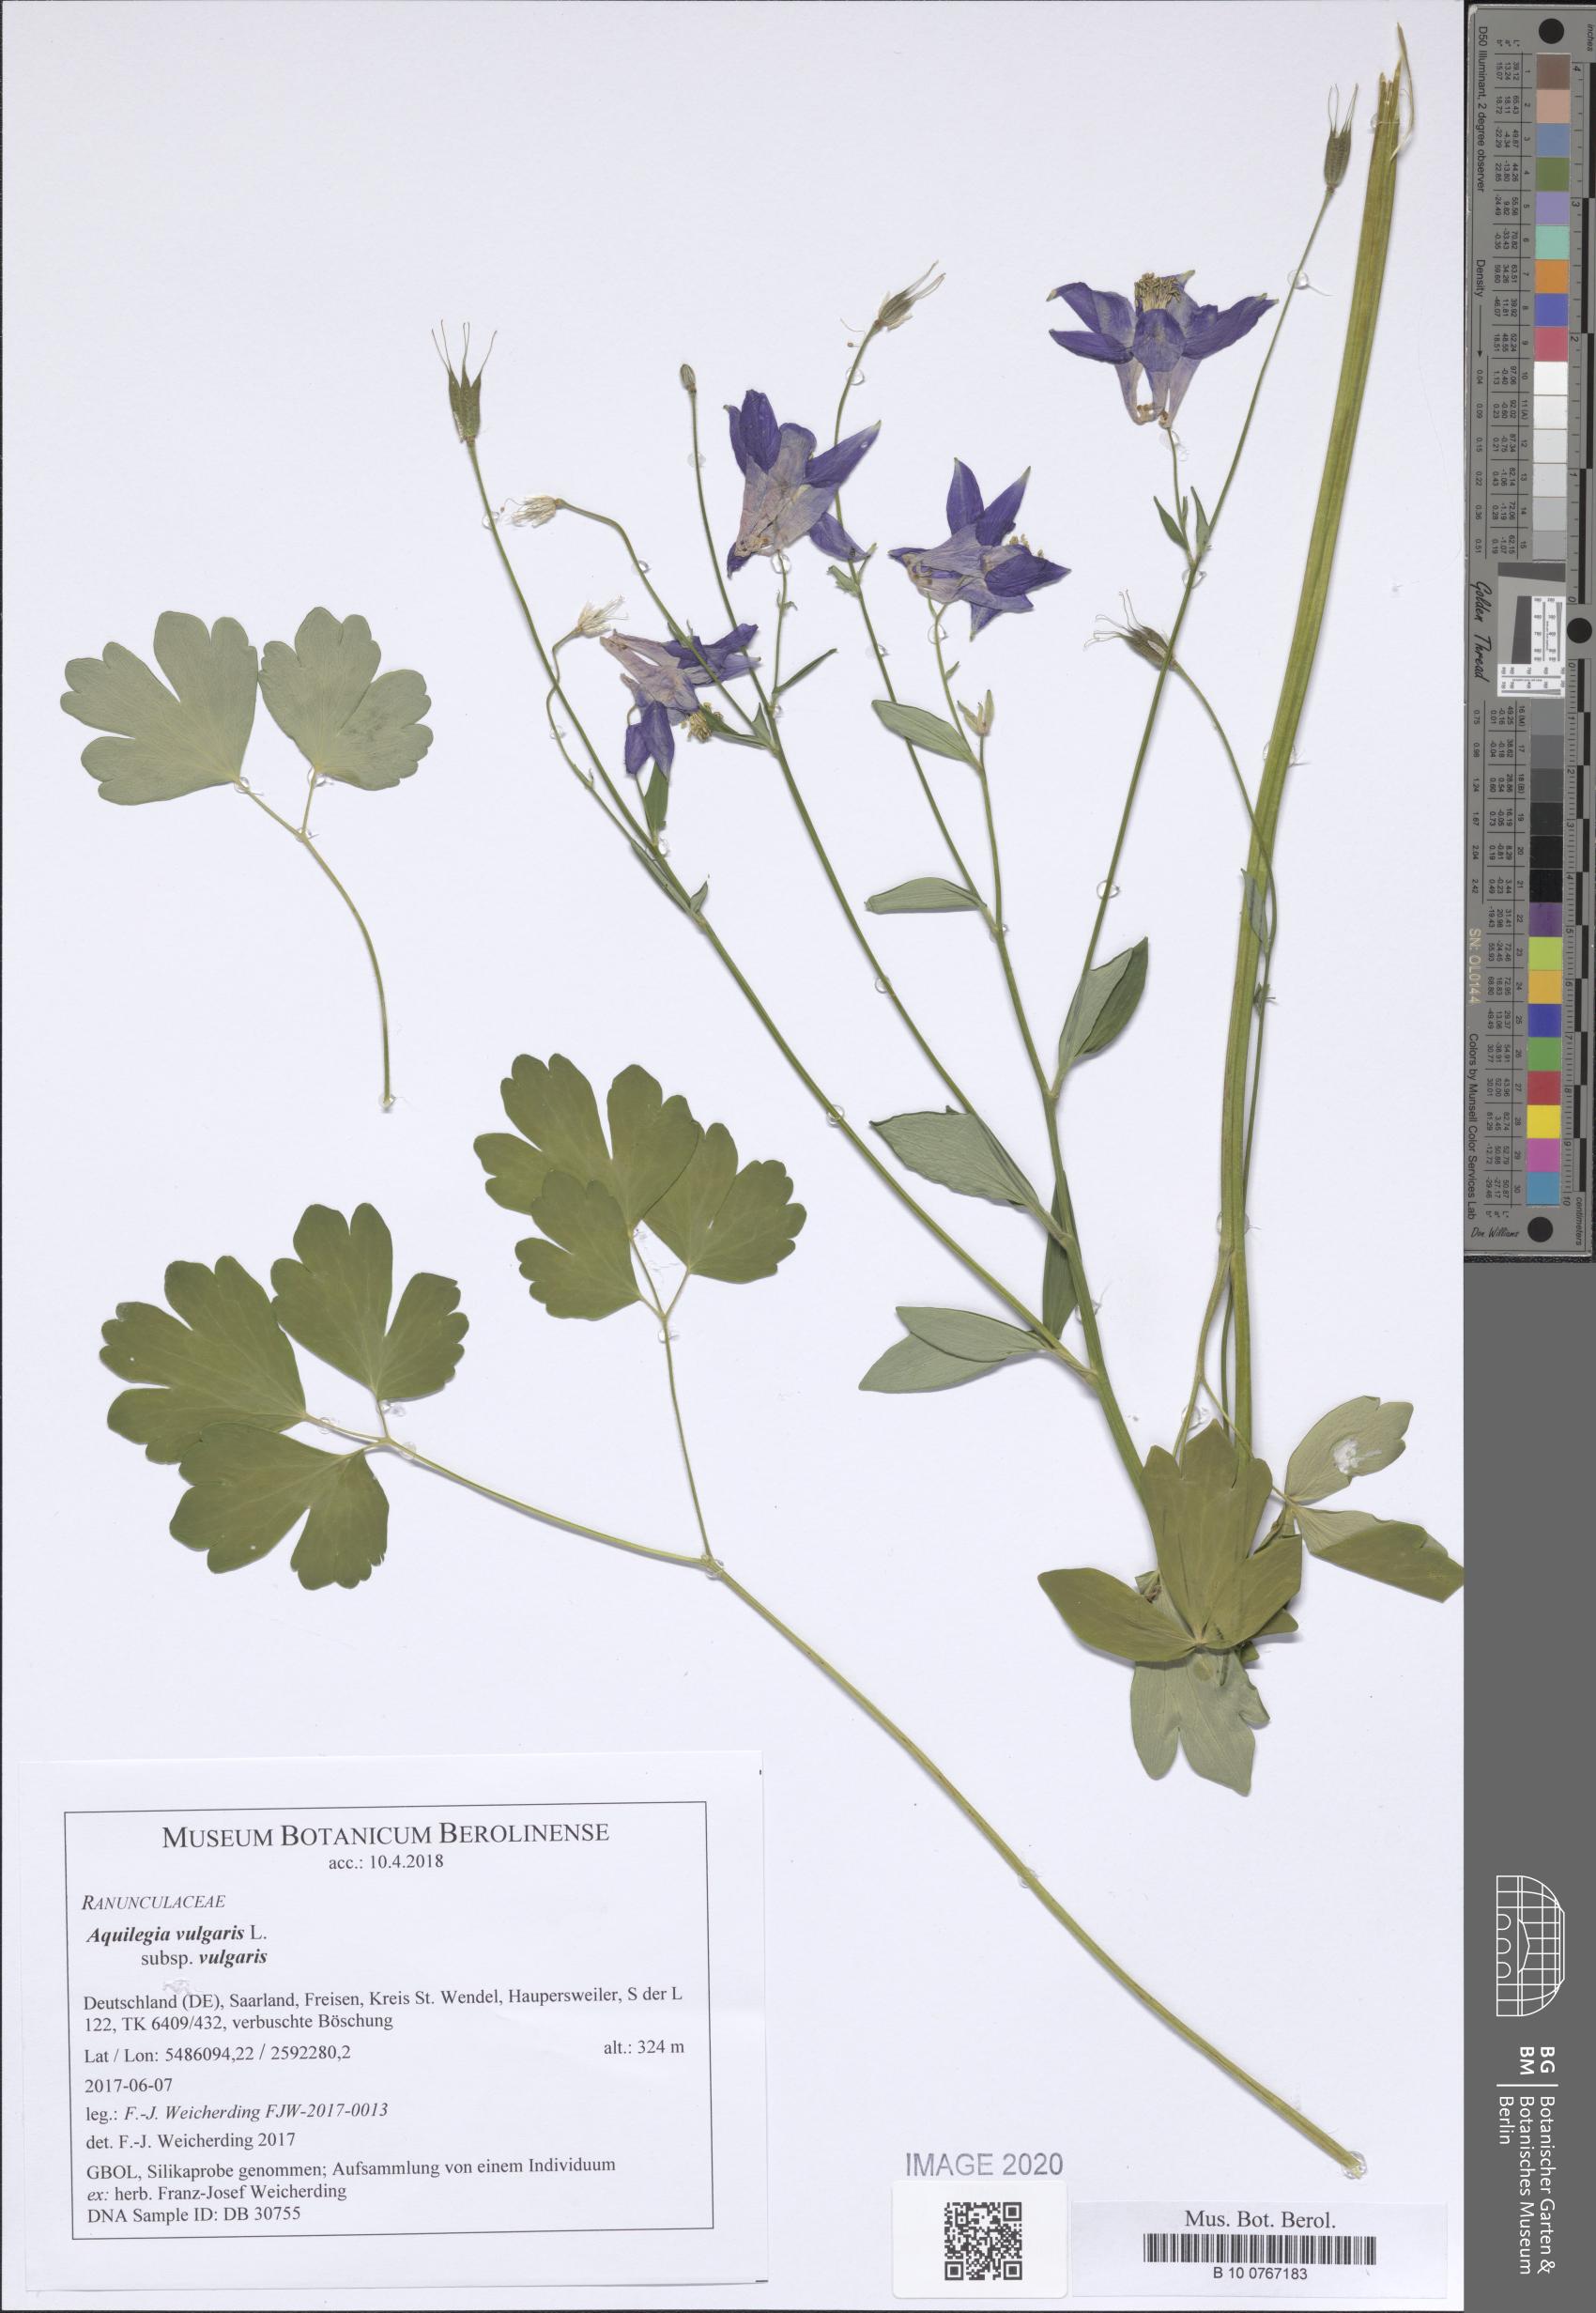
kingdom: Plantae
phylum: Tracheophyta
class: Magnoliopsida
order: Ranunculales
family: Ranunculaceae
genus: Aquilegia
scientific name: Aquilegia vulgaris
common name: Columbine
